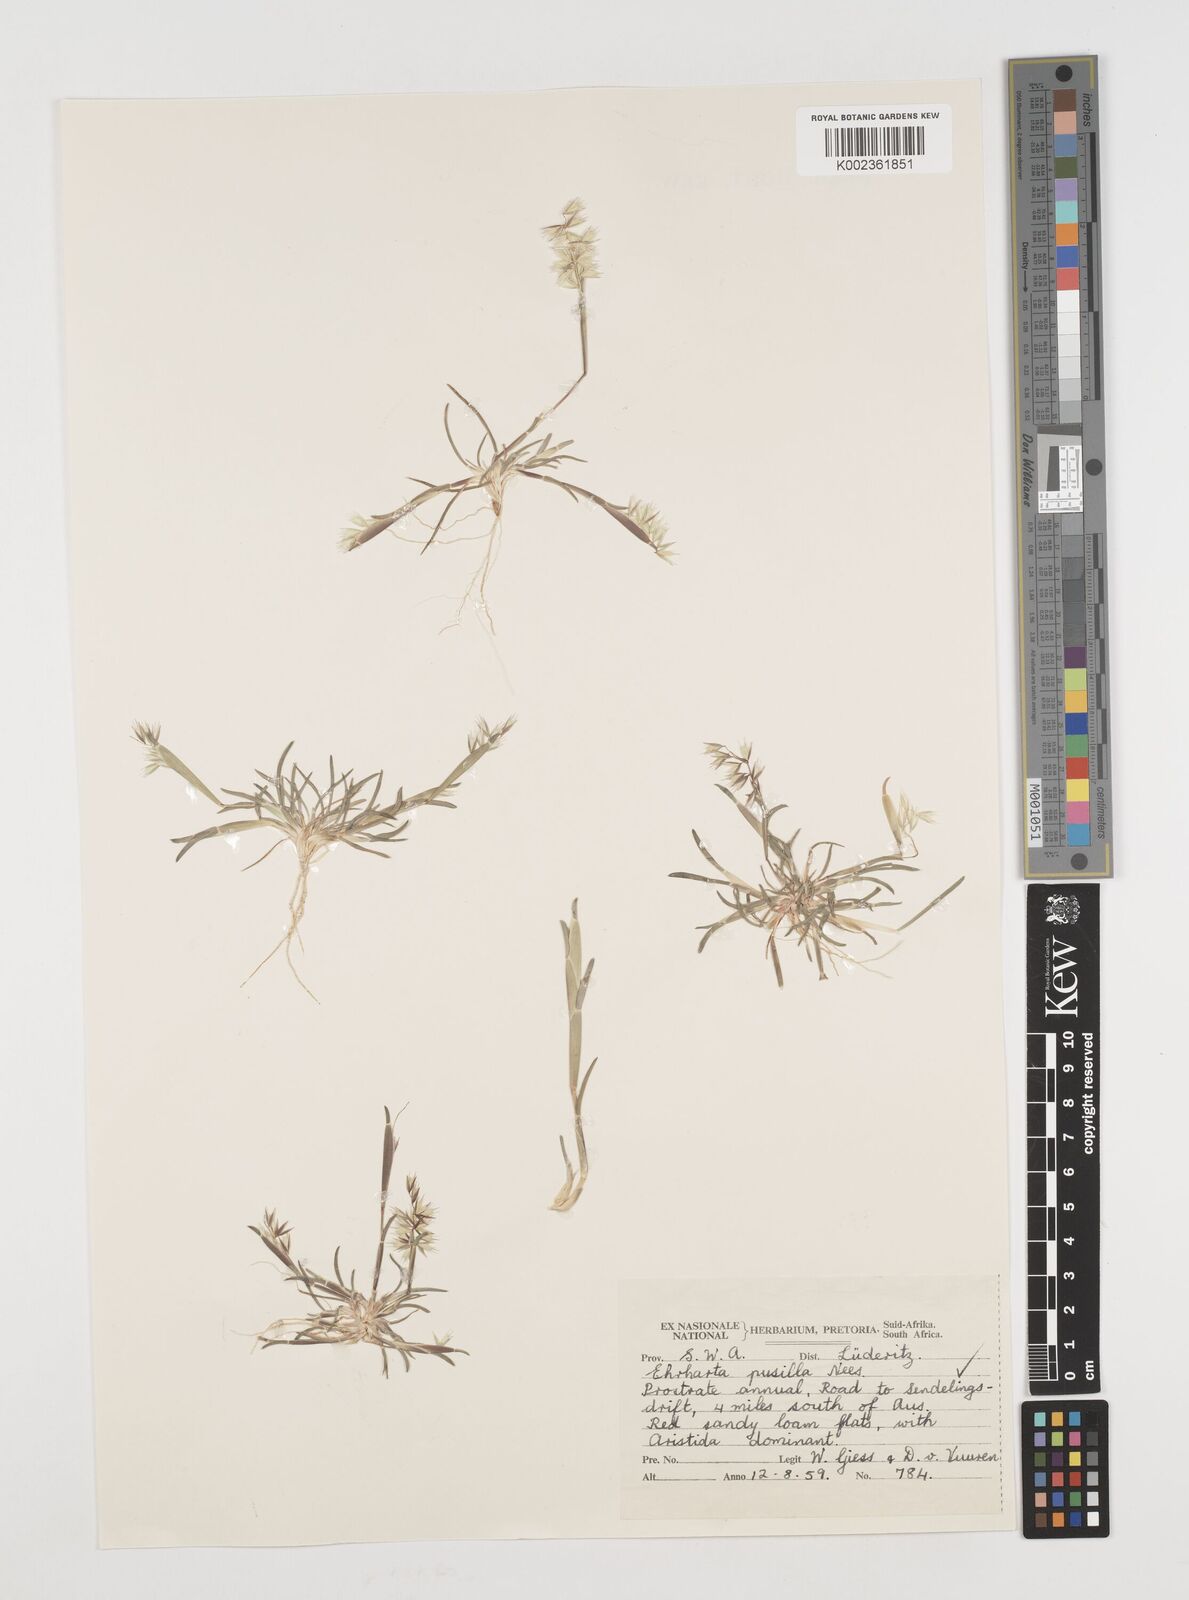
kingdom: Plantae
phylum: Tracheophyta
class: Liliopsida
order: Poales
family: Poaceae
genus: Ehrharta
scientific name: Ehrharta pusilla
